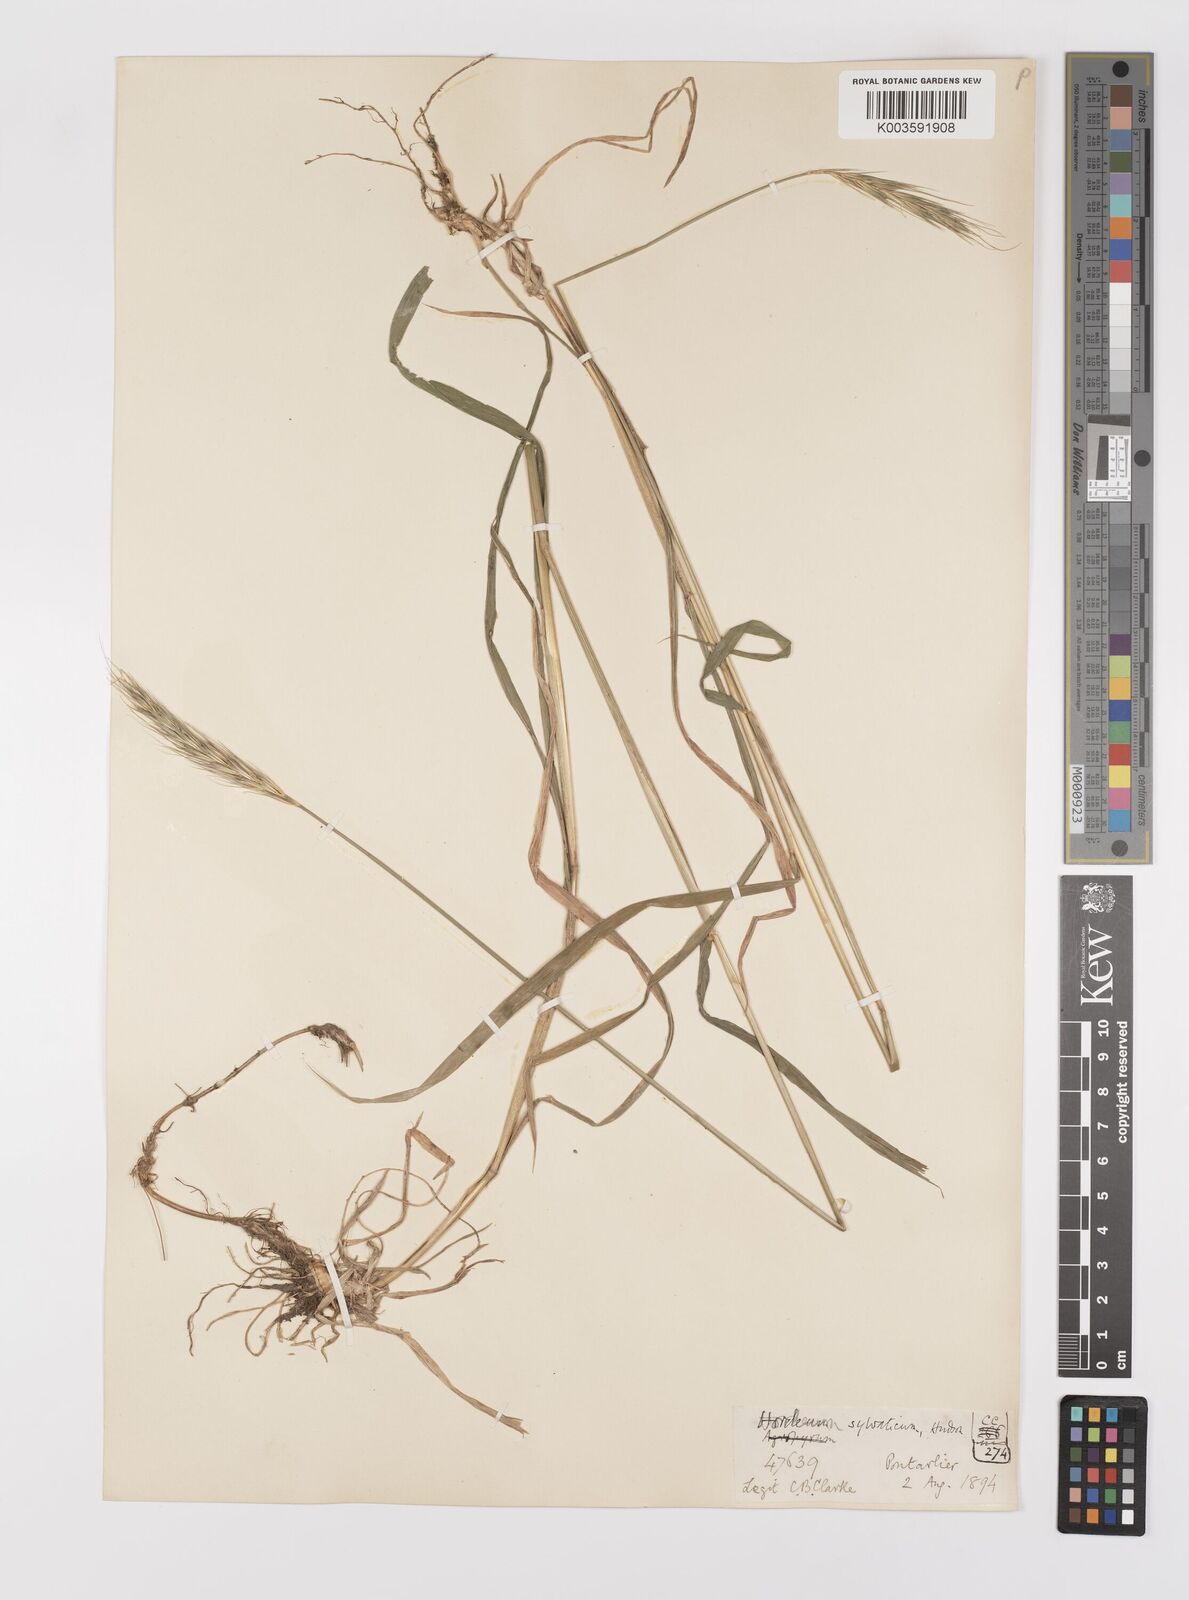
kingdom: Plantae
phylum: Tracheophyta
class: Liliopsida
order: Poales
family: Poaceae
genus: Hordelymus
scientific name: Hordelymus europaeus
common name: Wood-barley
